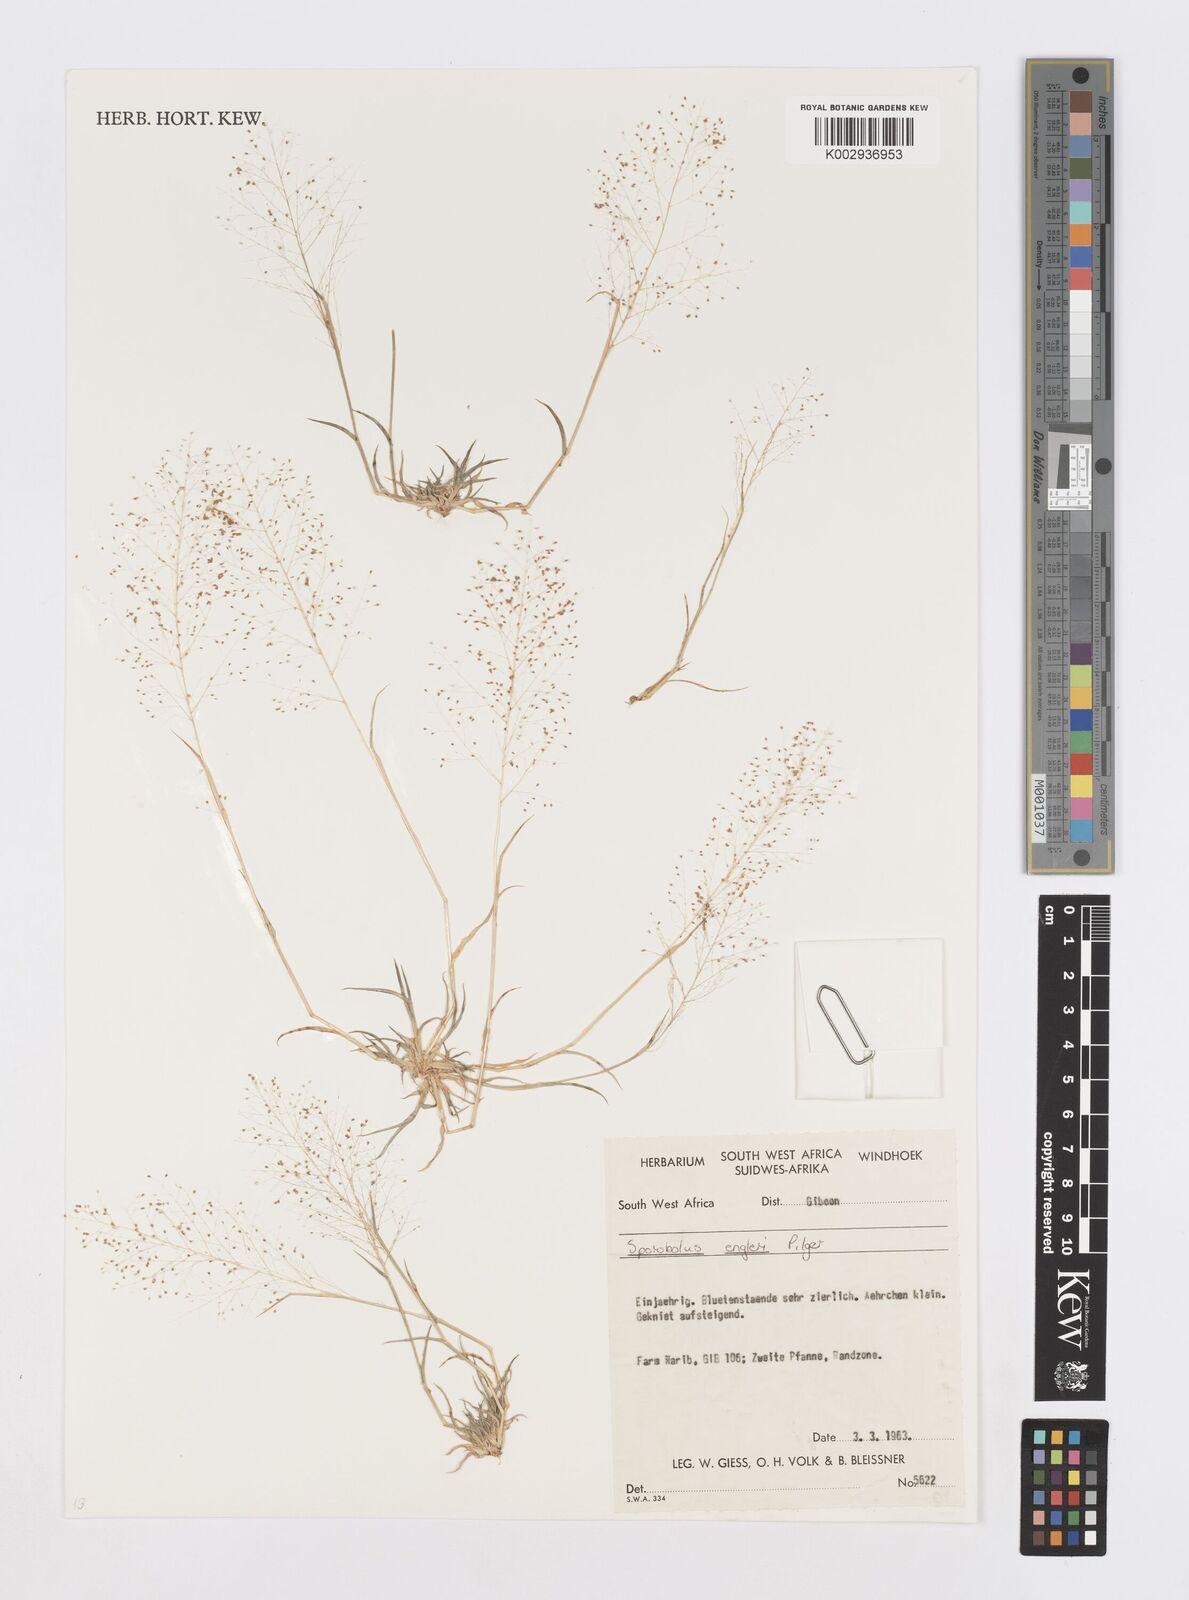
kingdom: Plantae
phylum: Tracheophyta
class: Liliopsida
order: Poales
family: Poaceae
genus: Sporobolus
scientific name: Sporobolus engleri
